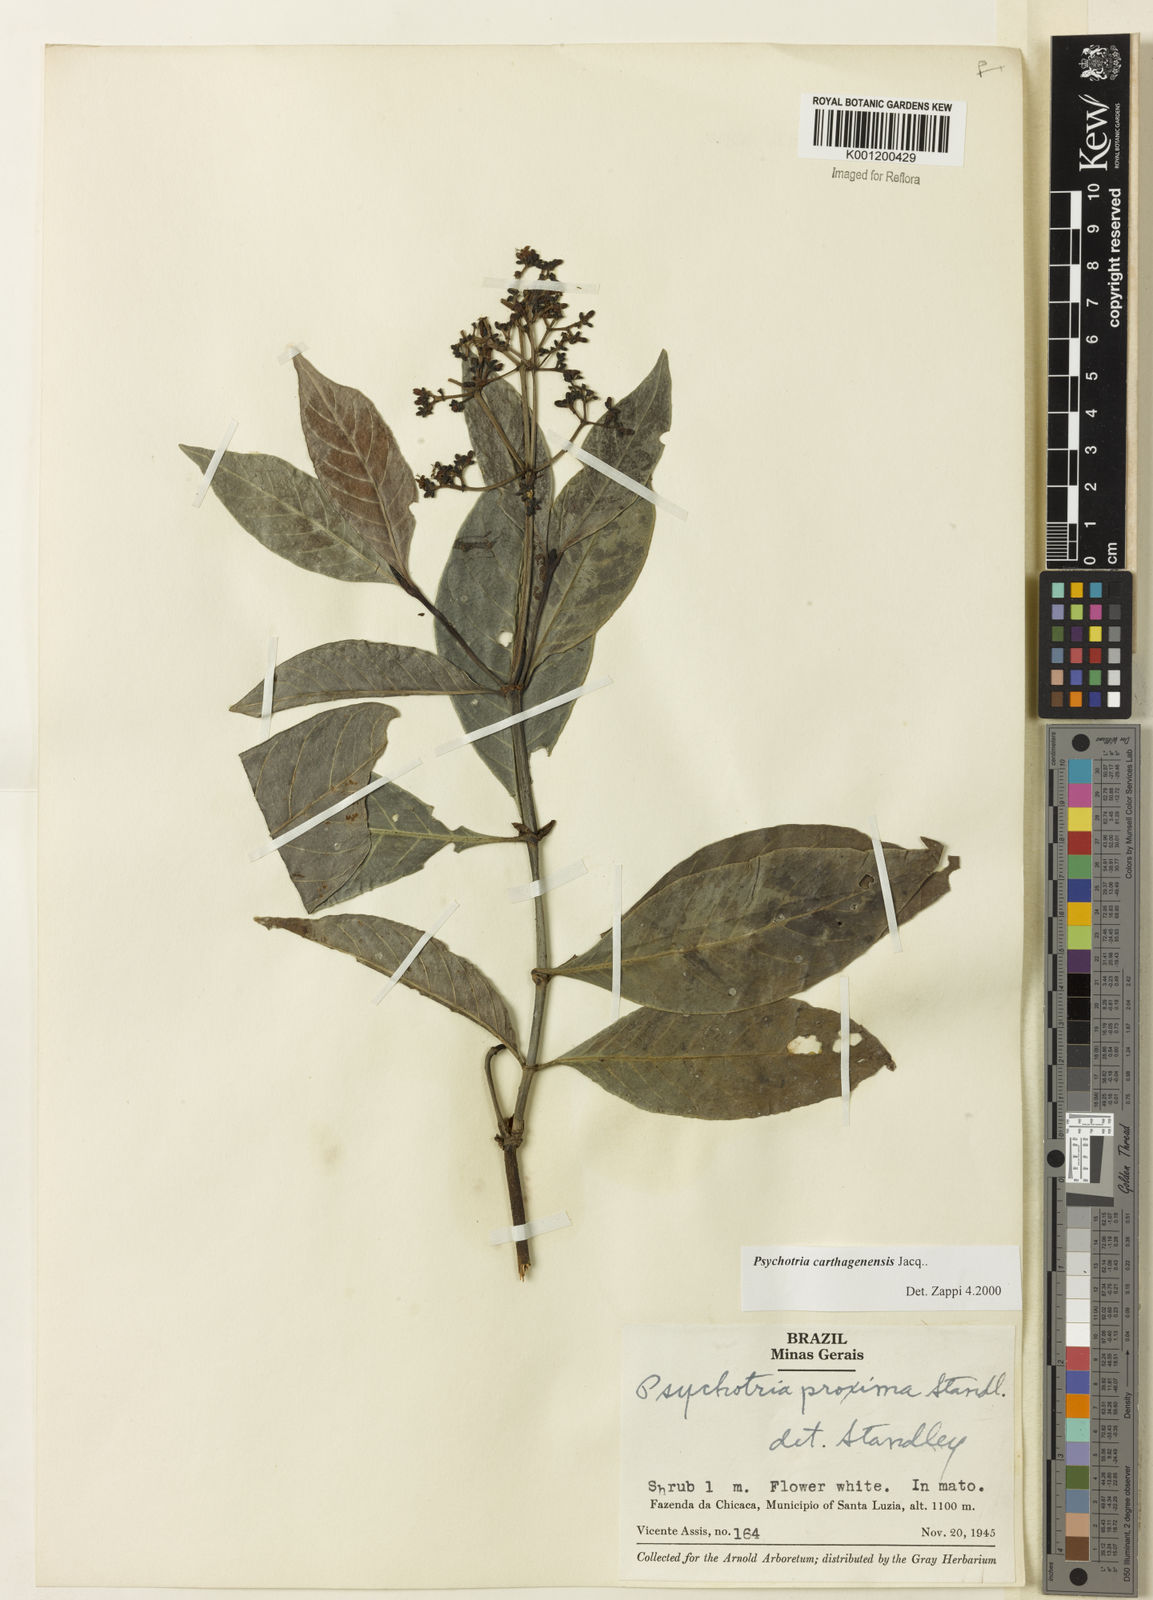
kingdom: Plantae
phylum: Tracheophyta
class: Magnoliopsida
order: Gentianales
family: Rubiaceae
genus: Psychotria
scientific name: Psychotria carthagenensis
